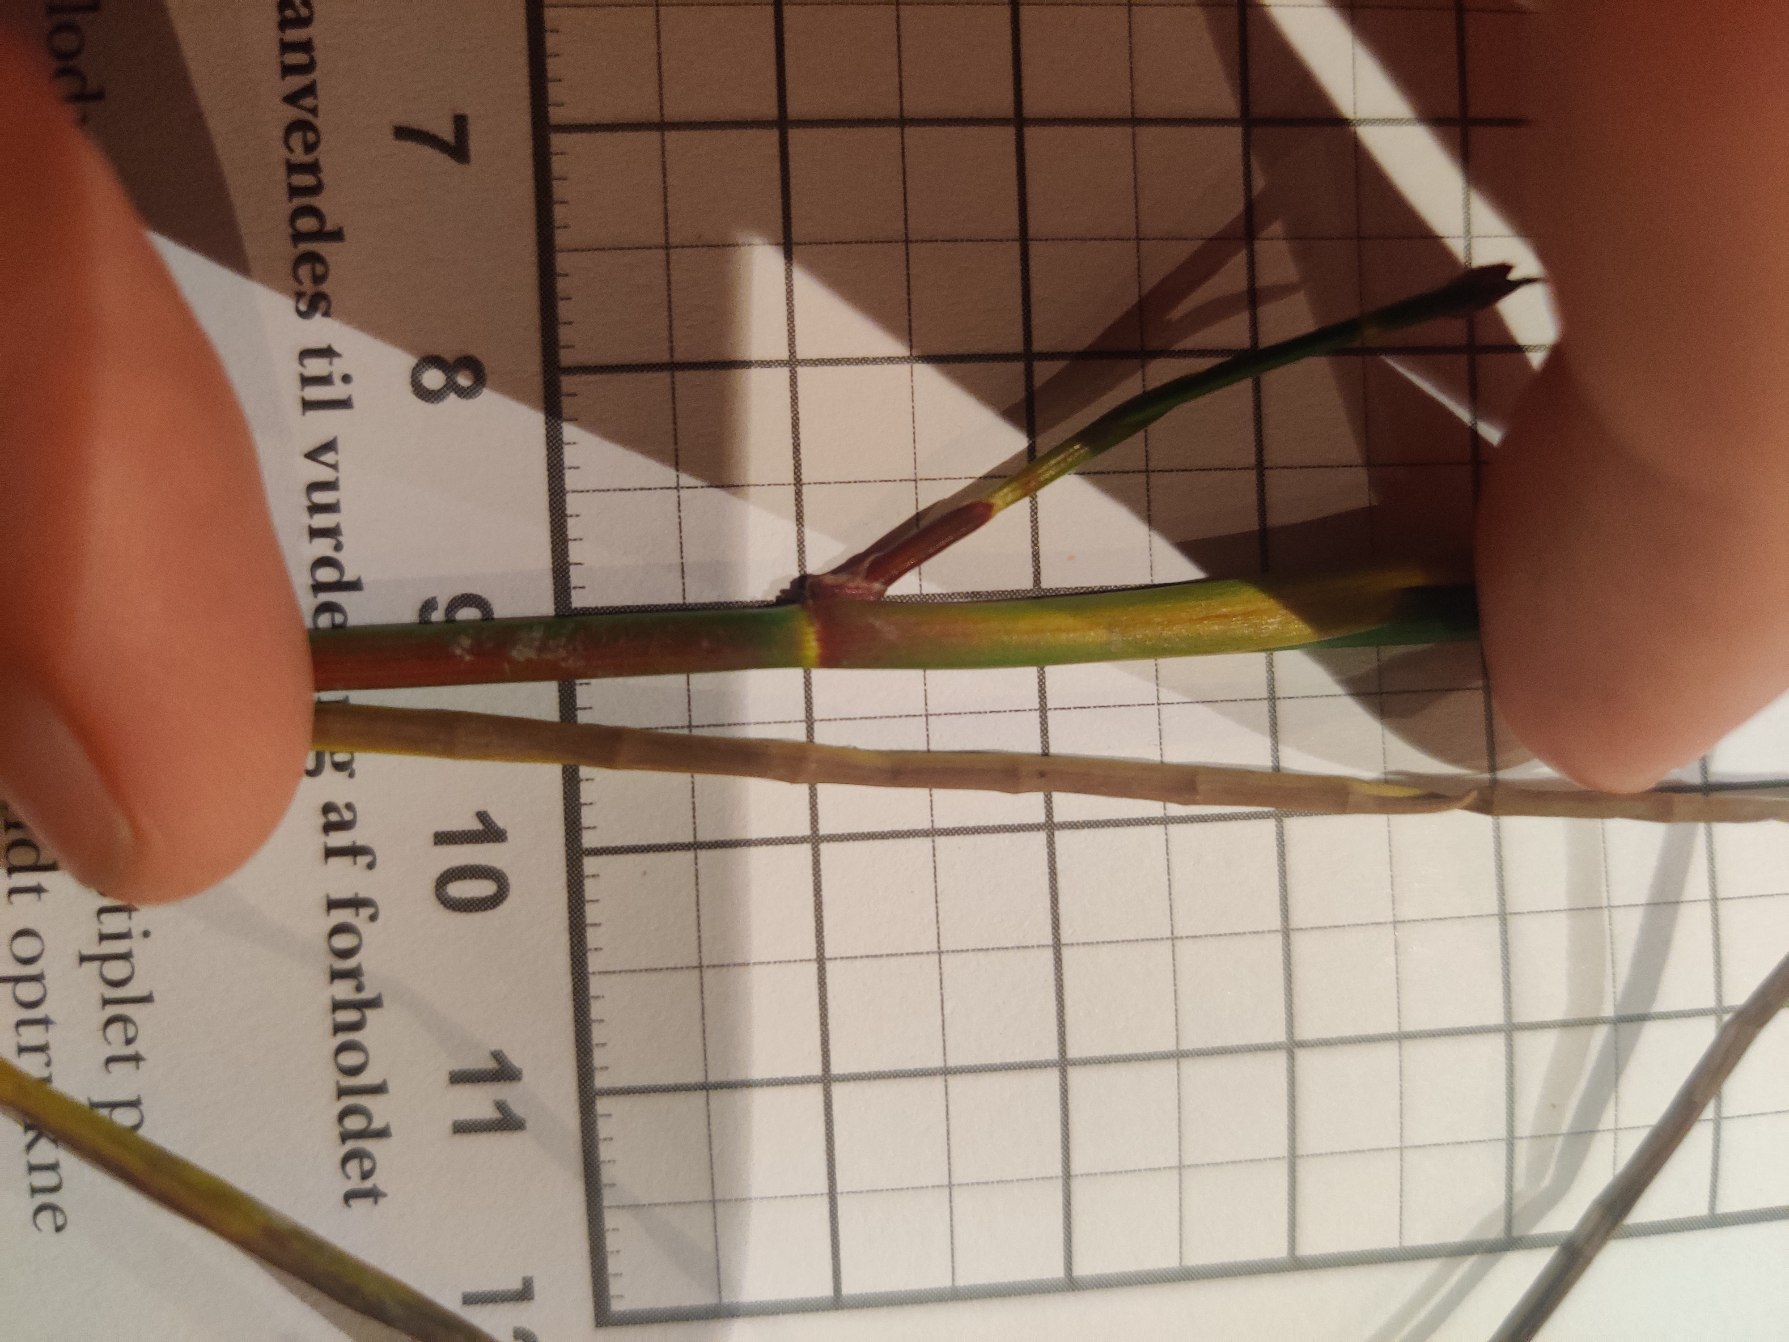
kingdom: Plantae
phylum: Tracheophyta
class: Liliopsida
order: Poales
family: Juncaceae
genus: Juncus
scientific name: Juncus articulatus
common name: Glanskapslet siv
